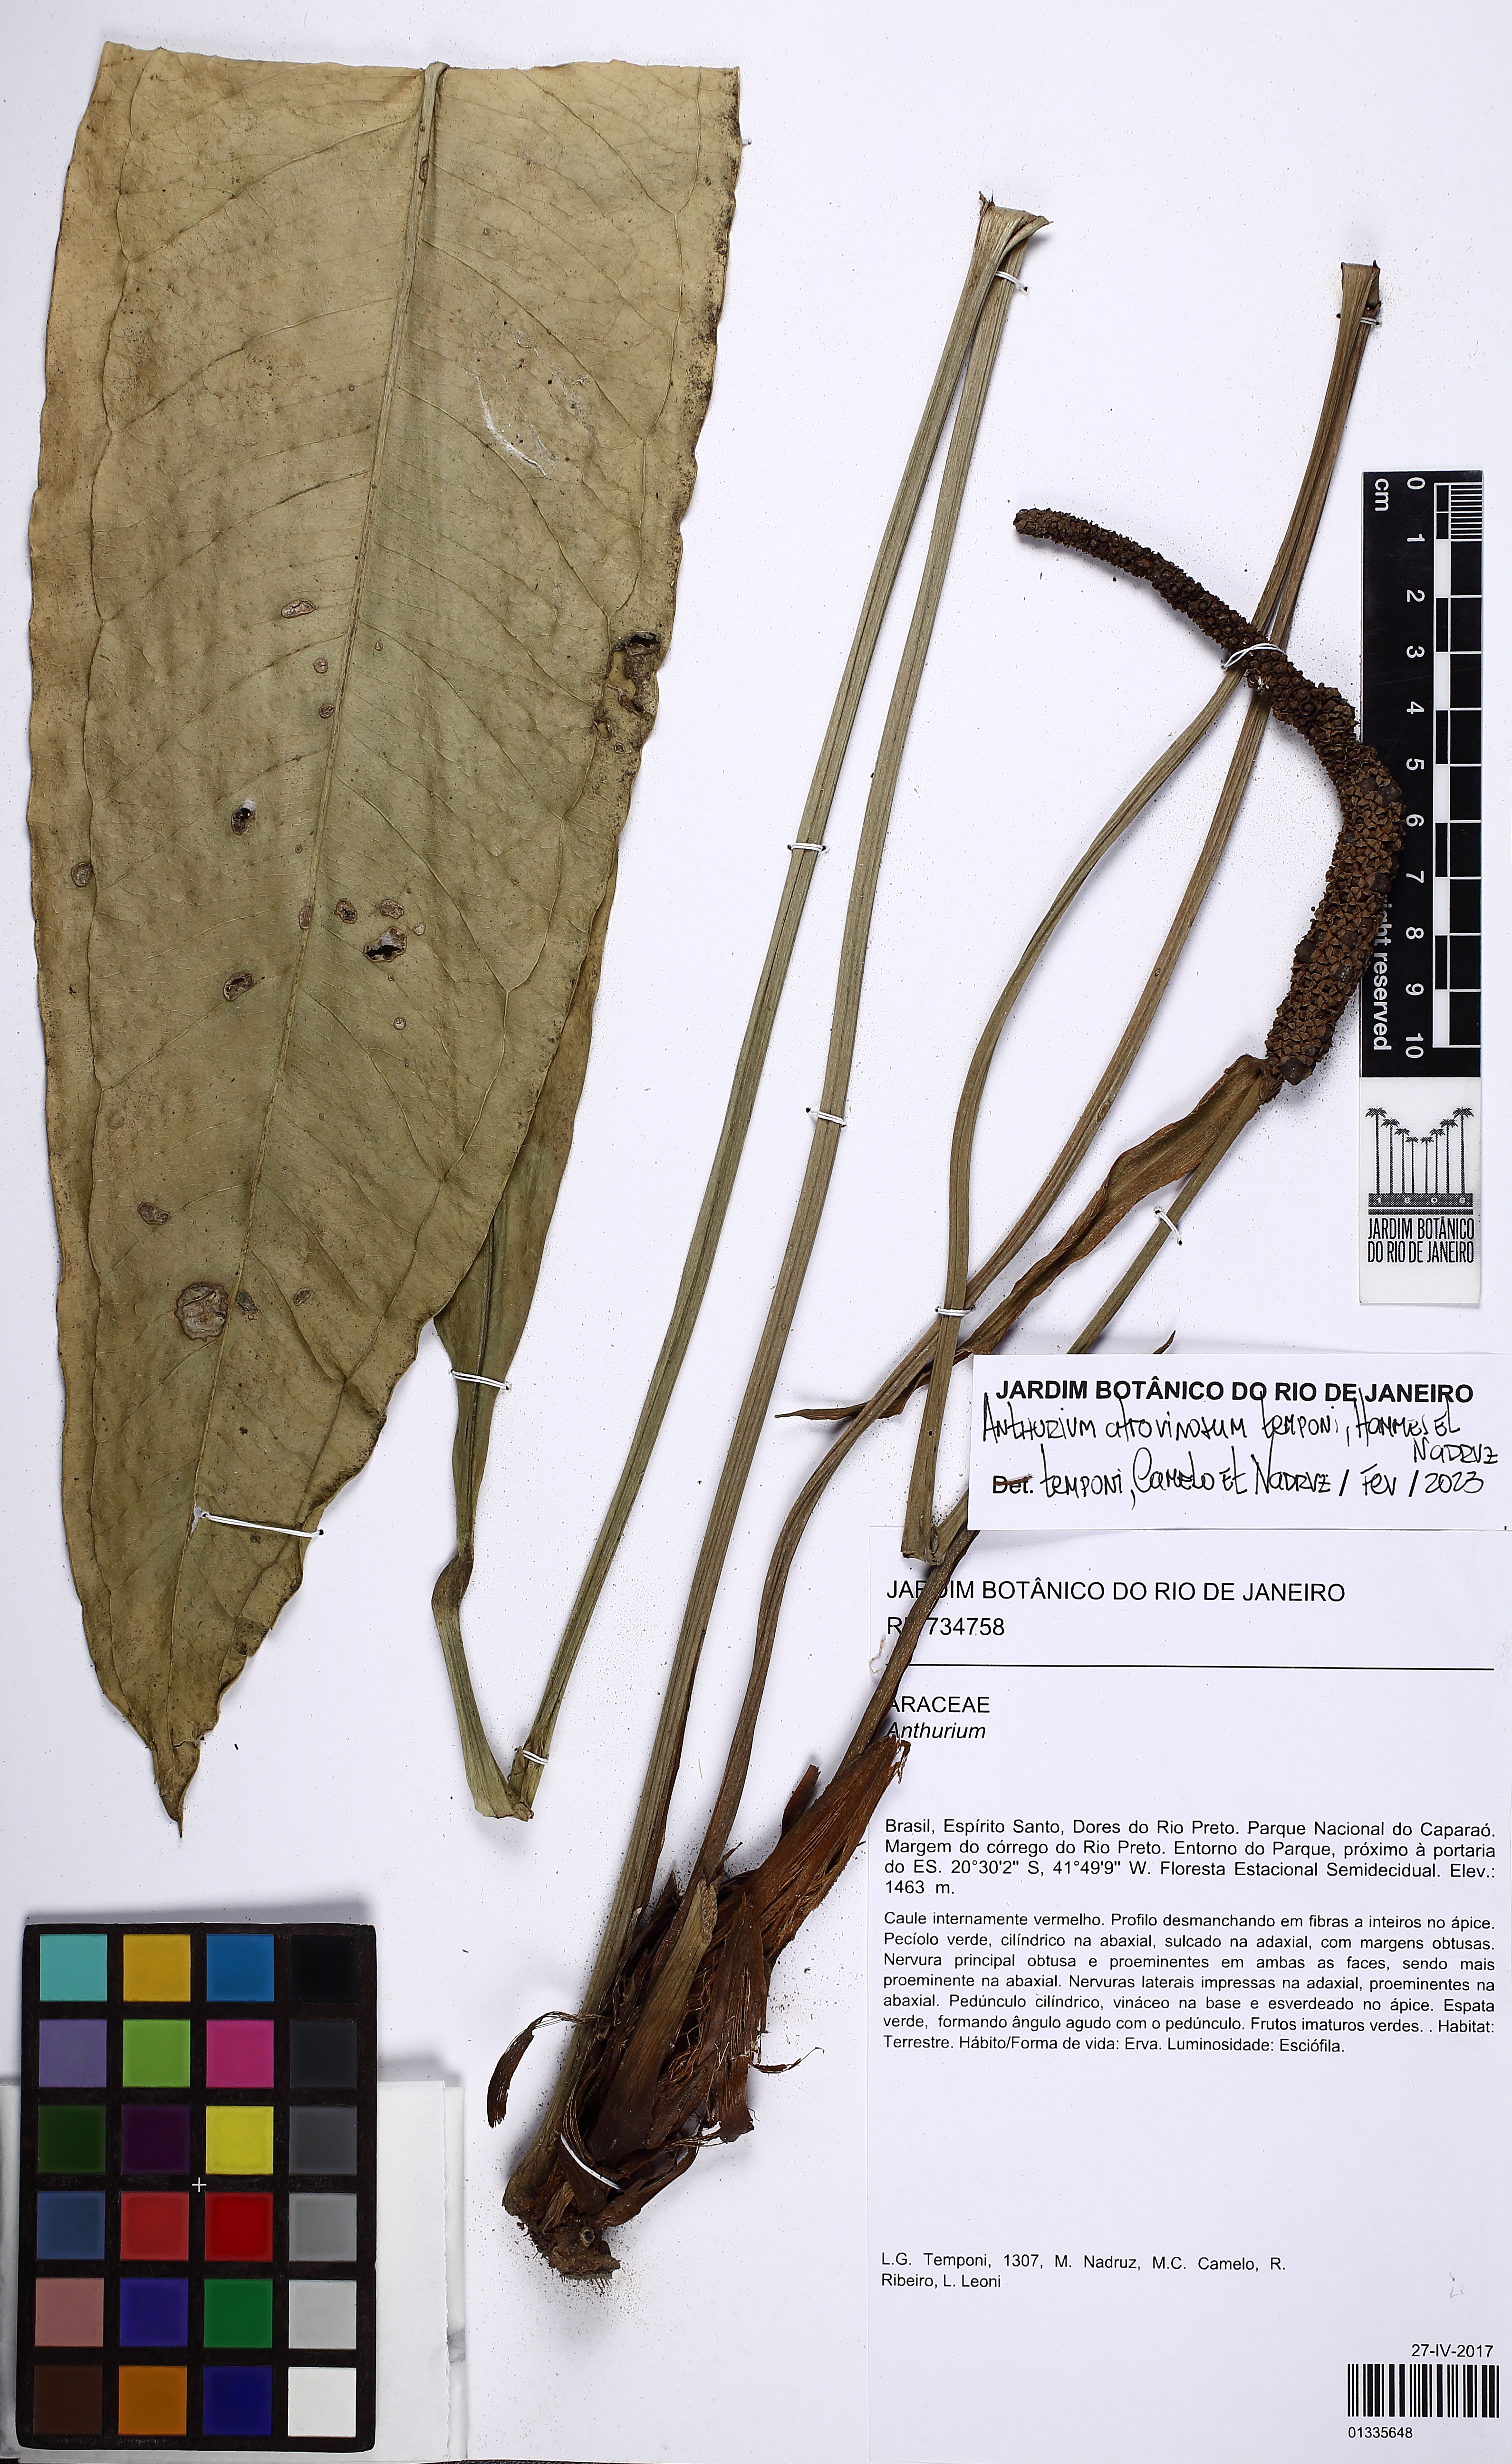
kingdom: Plantae
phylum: Tracheophyta
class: Liliopsida
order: Alismatales
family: Araceae
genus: Anthurium
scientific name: Anthurium atrovinosum
